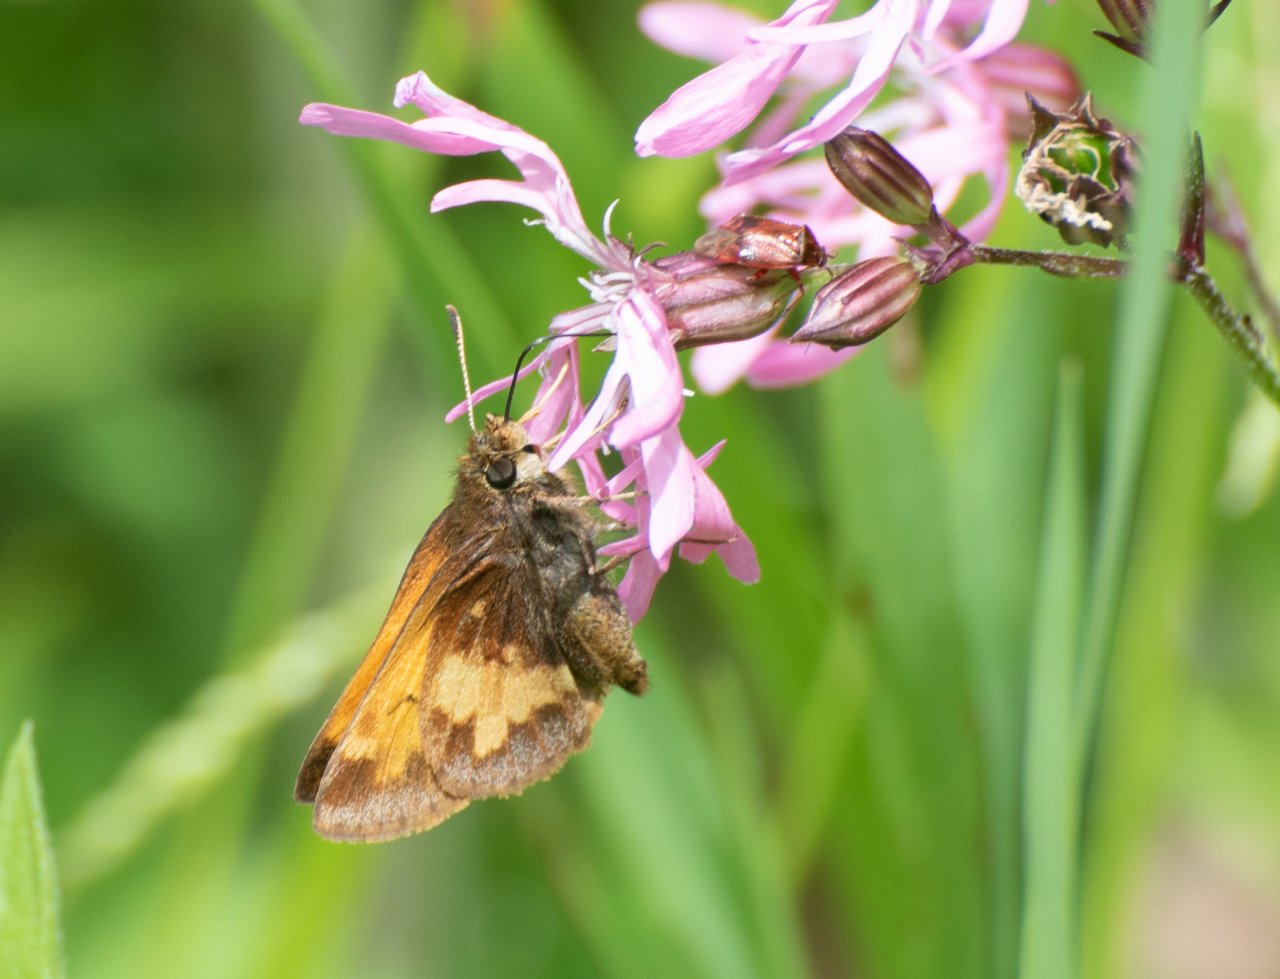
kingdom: Animalia
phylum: Arthropoda
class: Insecta
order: Lepidoptera
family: Hesperiidae
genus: Lon
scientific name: Lon hobomok
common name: Hobomok Skipper
